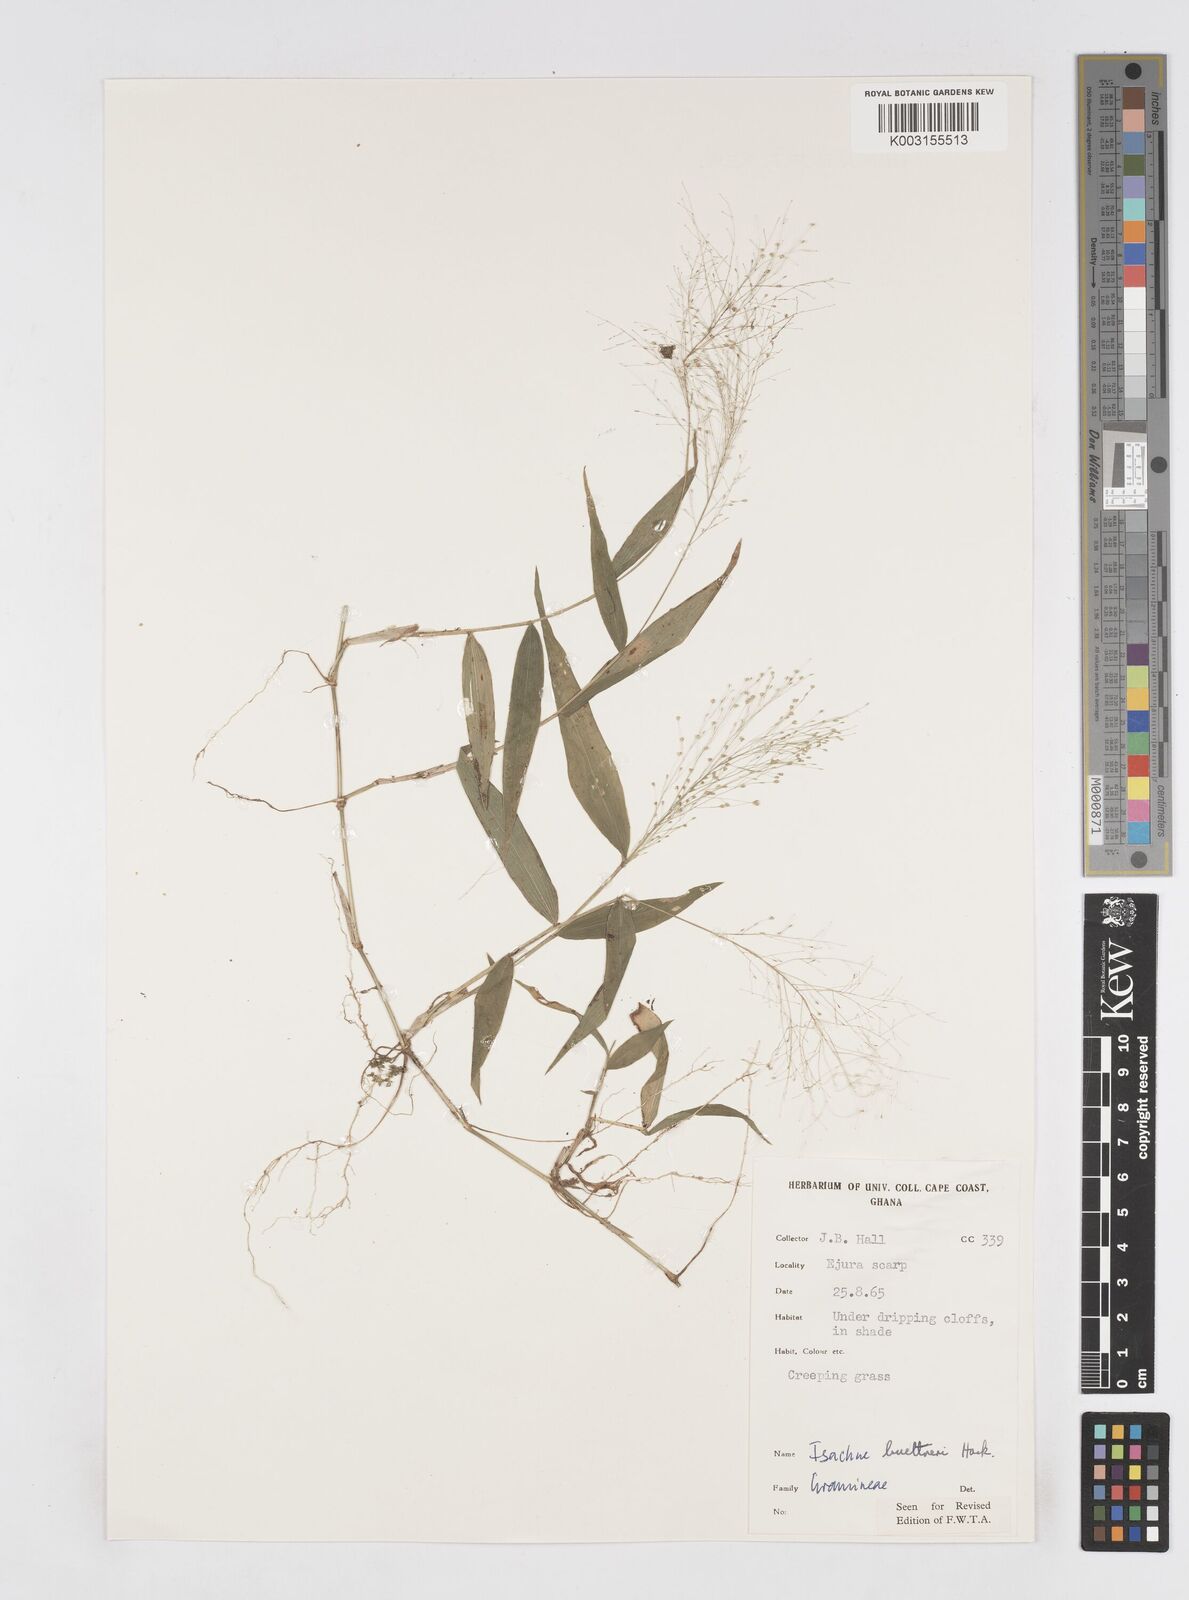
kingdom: Plantae
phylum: Tracheophyta
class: Liliopsida
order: Poales
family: Poaceae
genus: Isachne
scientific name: Isachne albens
